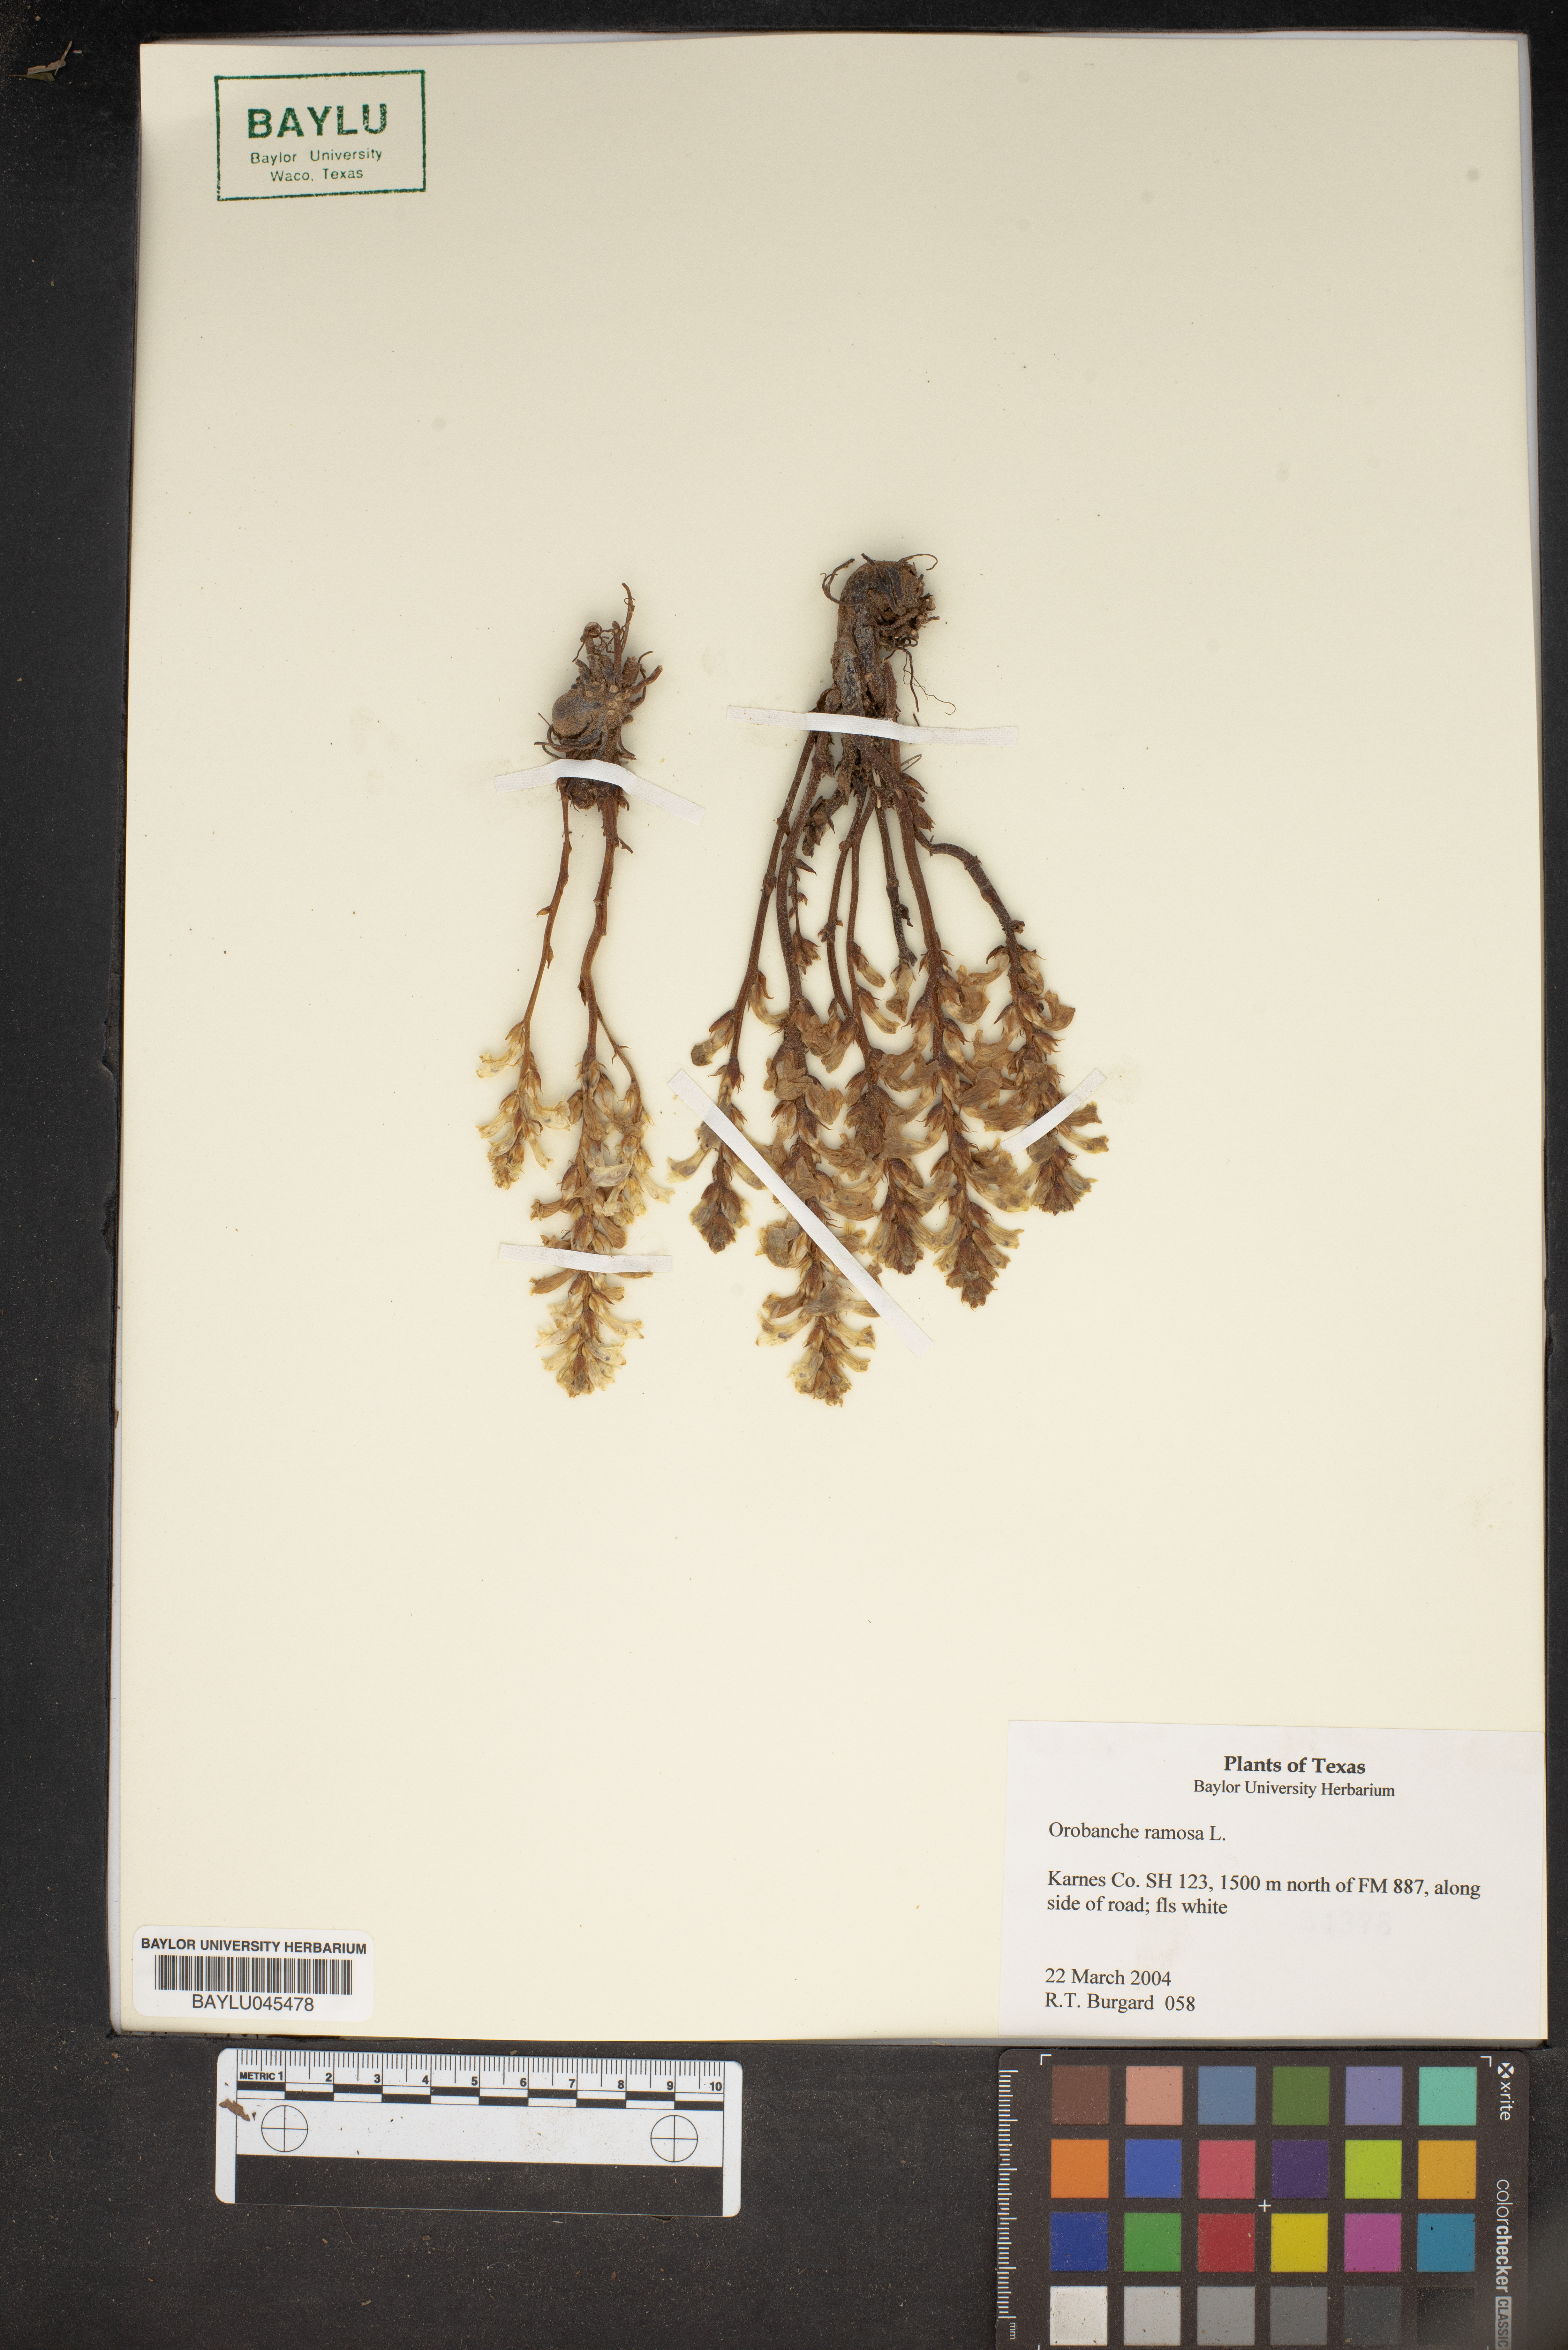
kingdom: Plantae
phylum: Tracheophyta
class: Magnoliopsida
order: Lamiales
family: Orobanchaceae
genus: Phelipanche
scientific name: Phelipanche ramosa
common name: Branched broomrape
